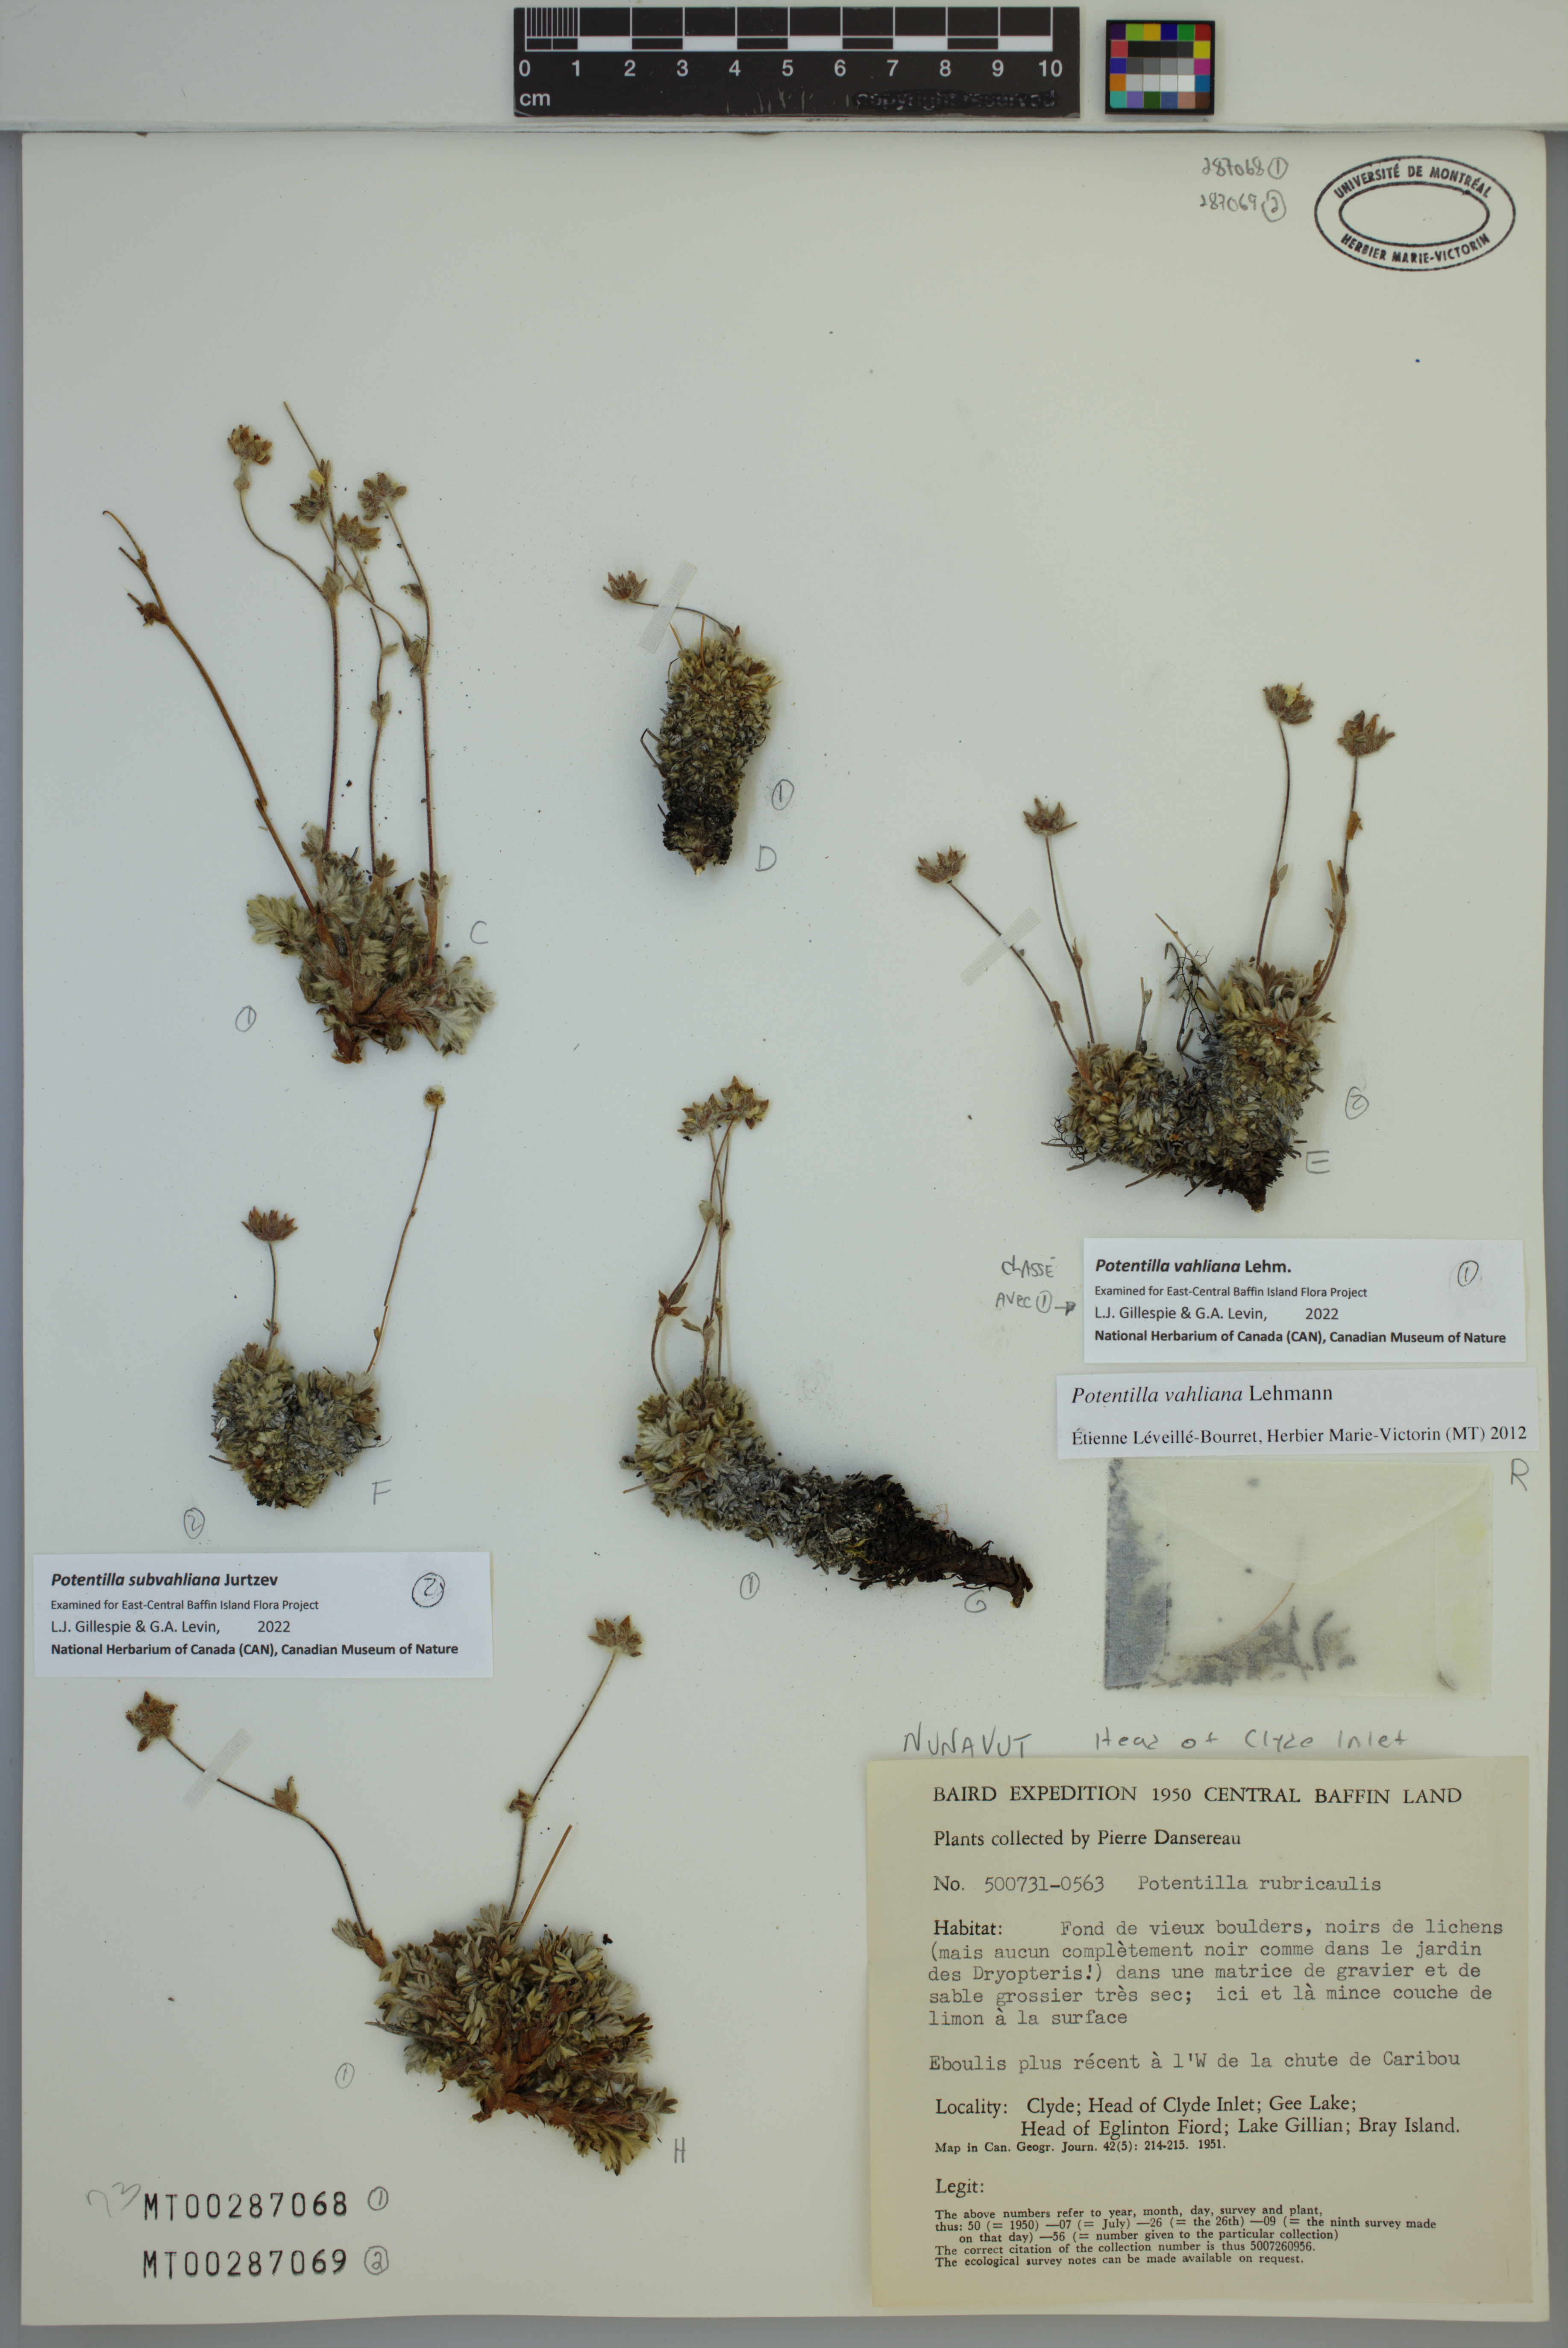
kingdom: Plantae
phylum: Tracheophyta
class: Magnoliopsida
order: Rosales
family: Rosaceae
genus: Potentilla
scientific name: Potentilla subvahliana
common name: Far northern cinquefoil
